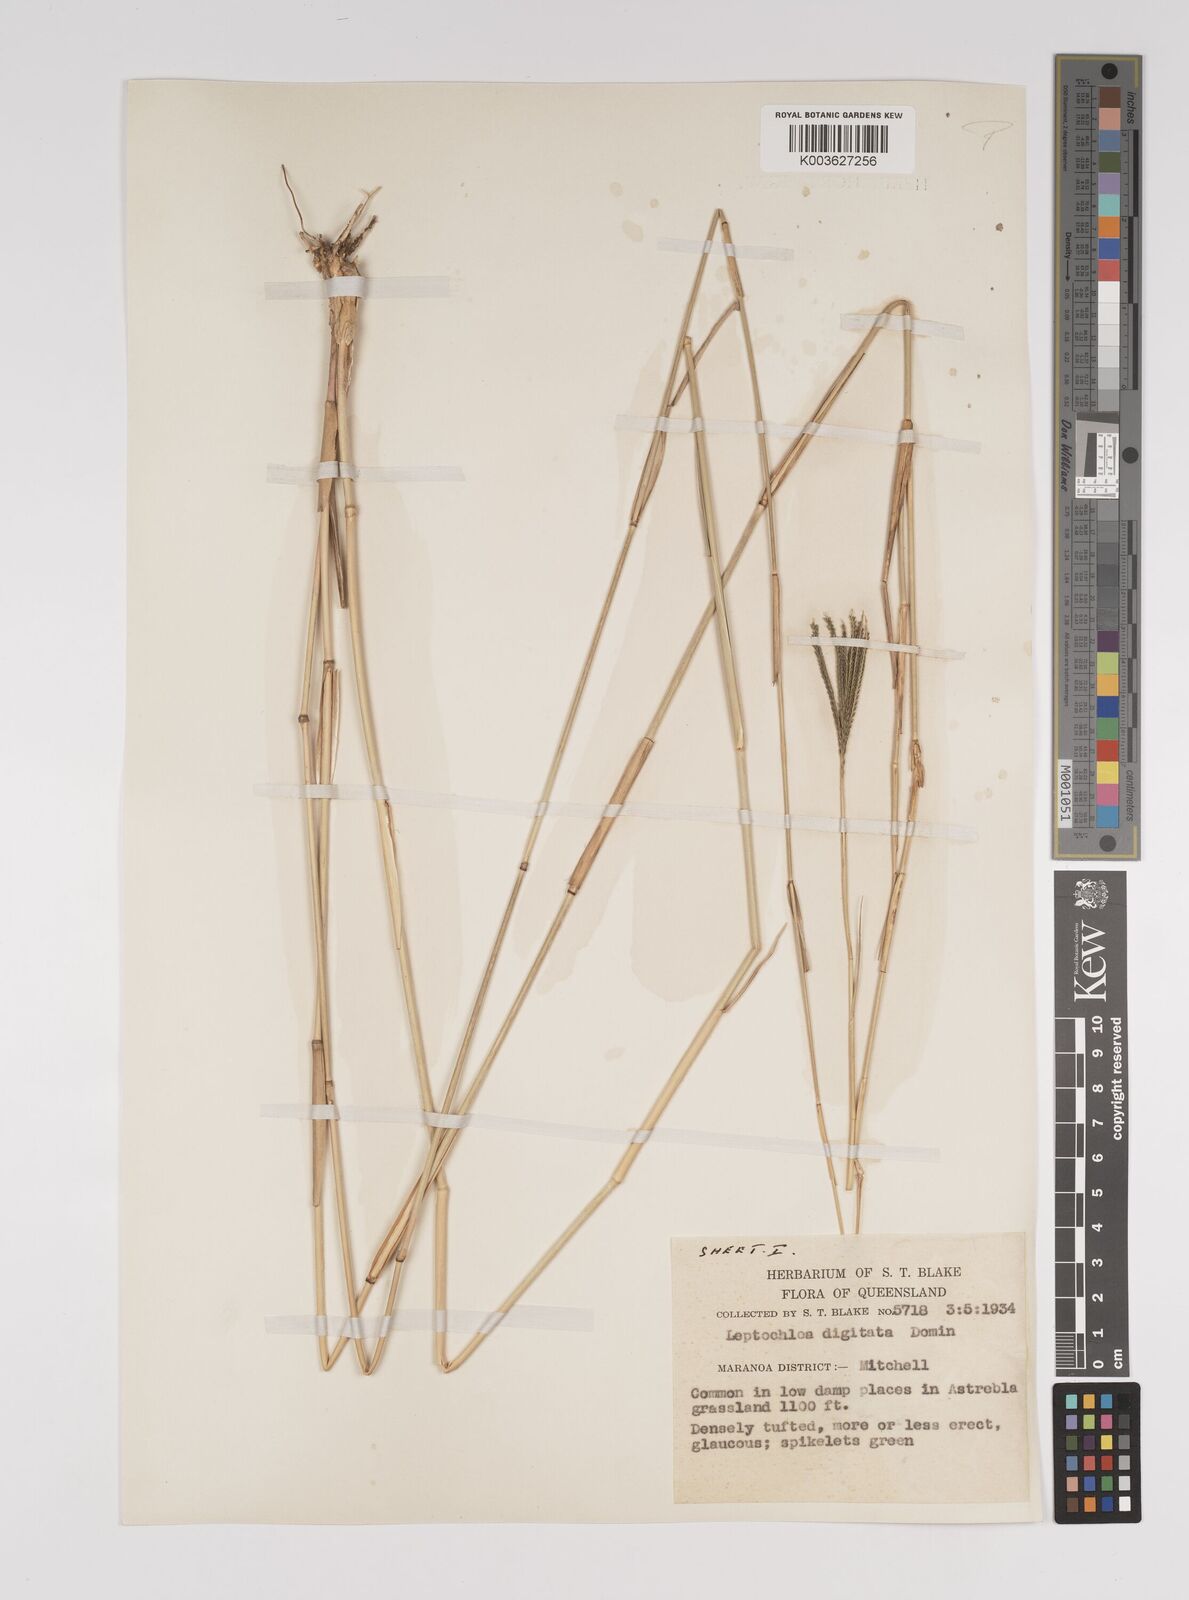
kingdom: Plantae
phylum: Tracheophyta
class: Liliopsida
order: Poales
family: Poaceae
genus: Leptochloa
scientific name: Leptochloa digitata
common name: Finger sprangletop
